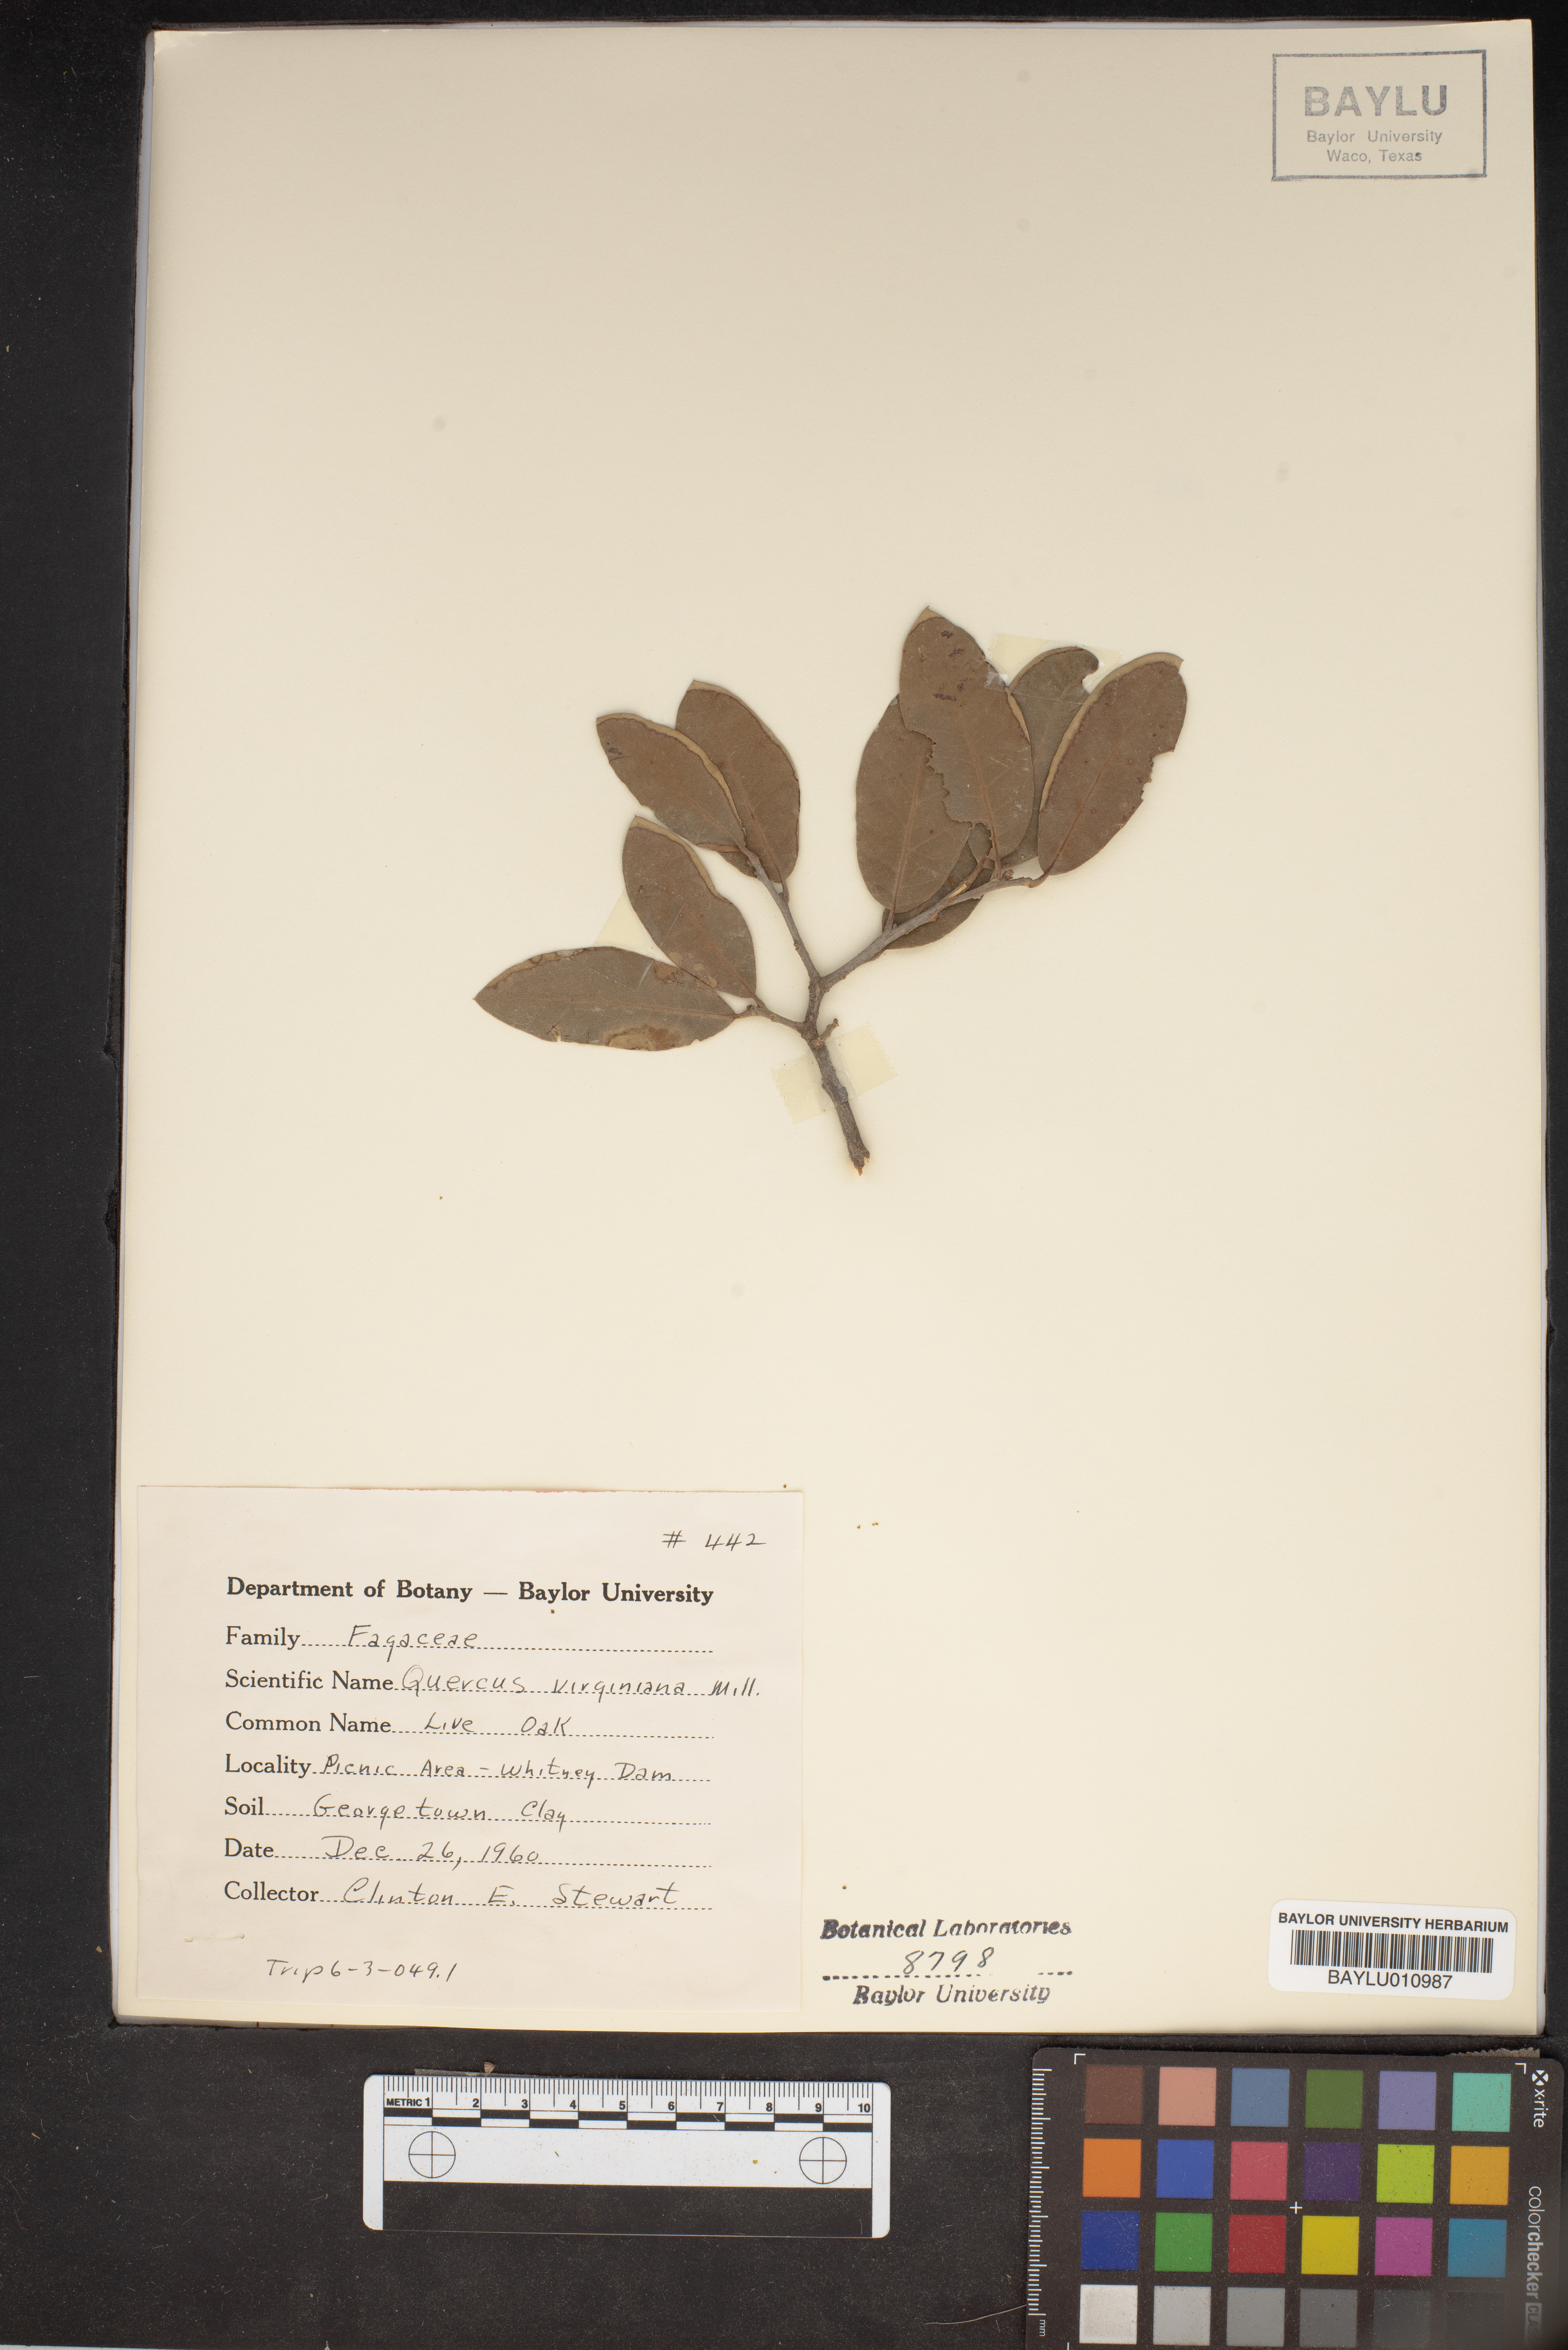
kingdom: Plantae
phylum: Tracheophyta
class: Magnoliopsida
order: Fagales
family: Fagaceae
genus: Quercus
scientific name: Quercus virginiana
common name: Southern live oak
